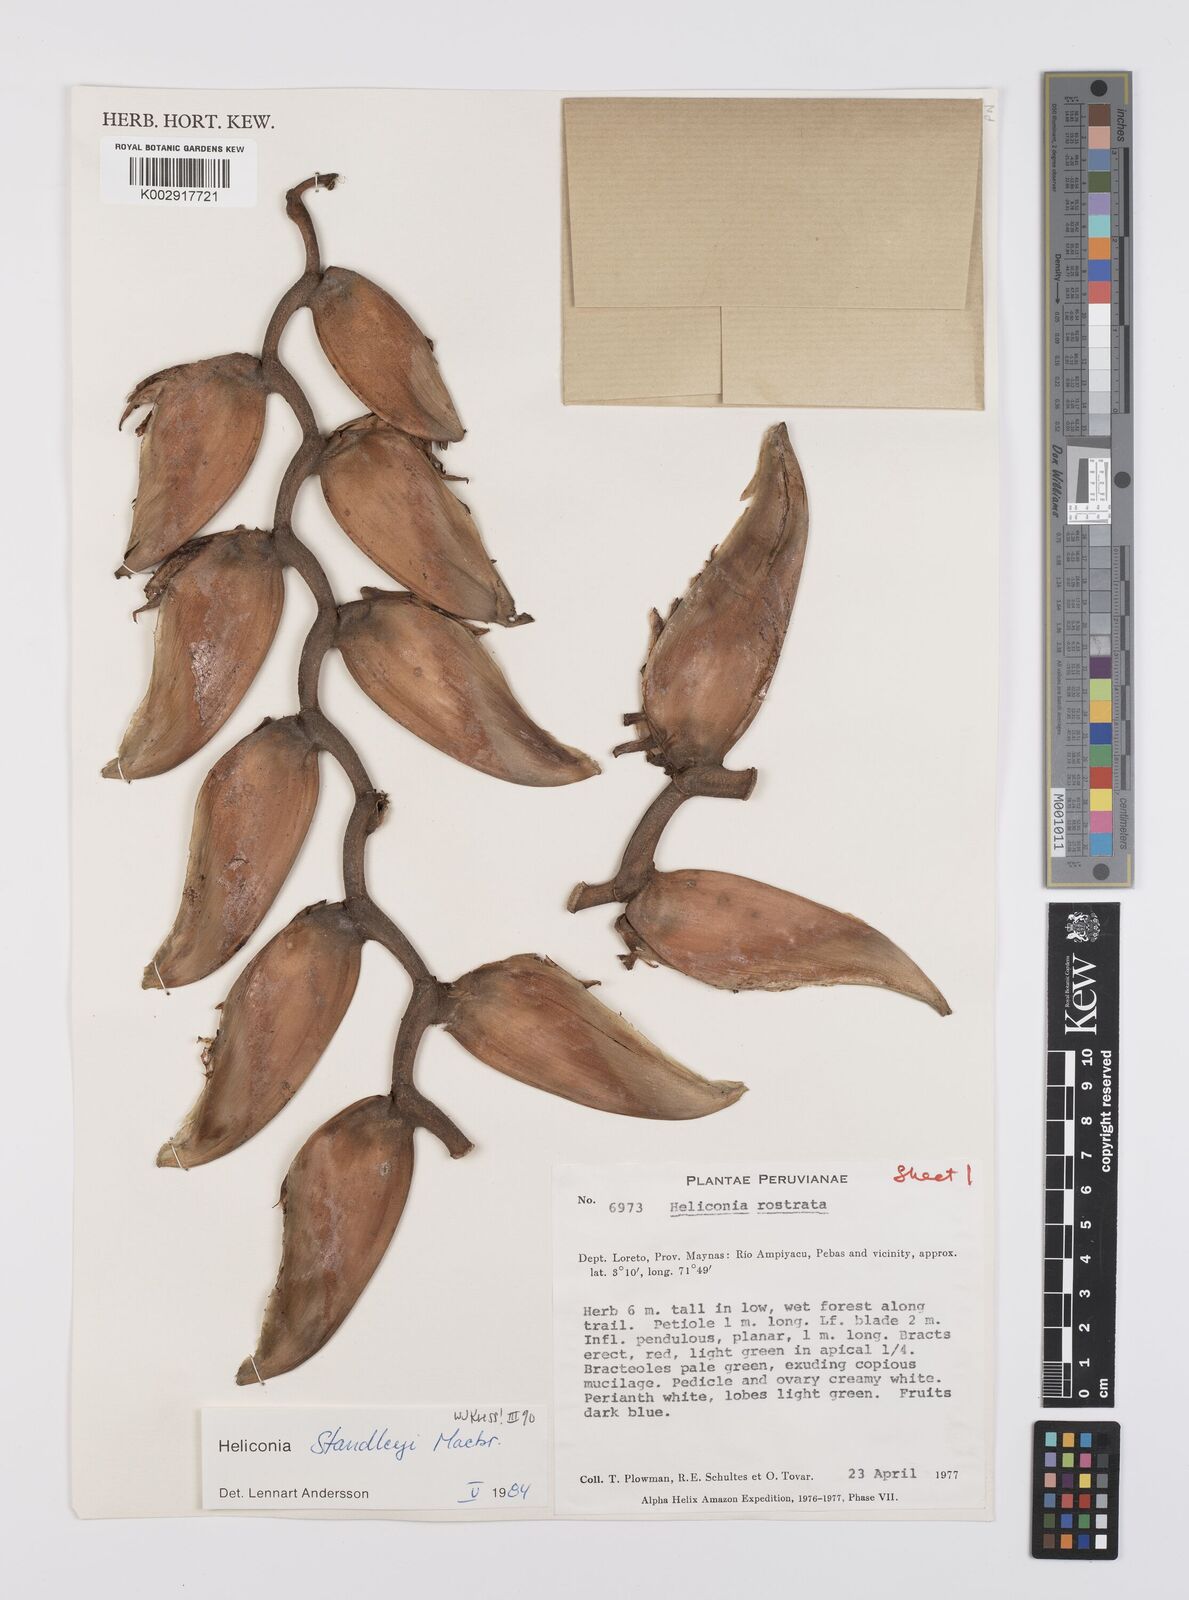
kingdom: Plantae
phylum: Tracheophyta
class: Liliopsida
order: Zingiberales
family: Heliconiaceae
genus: Heliconia
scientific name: Heliconia standleyi
